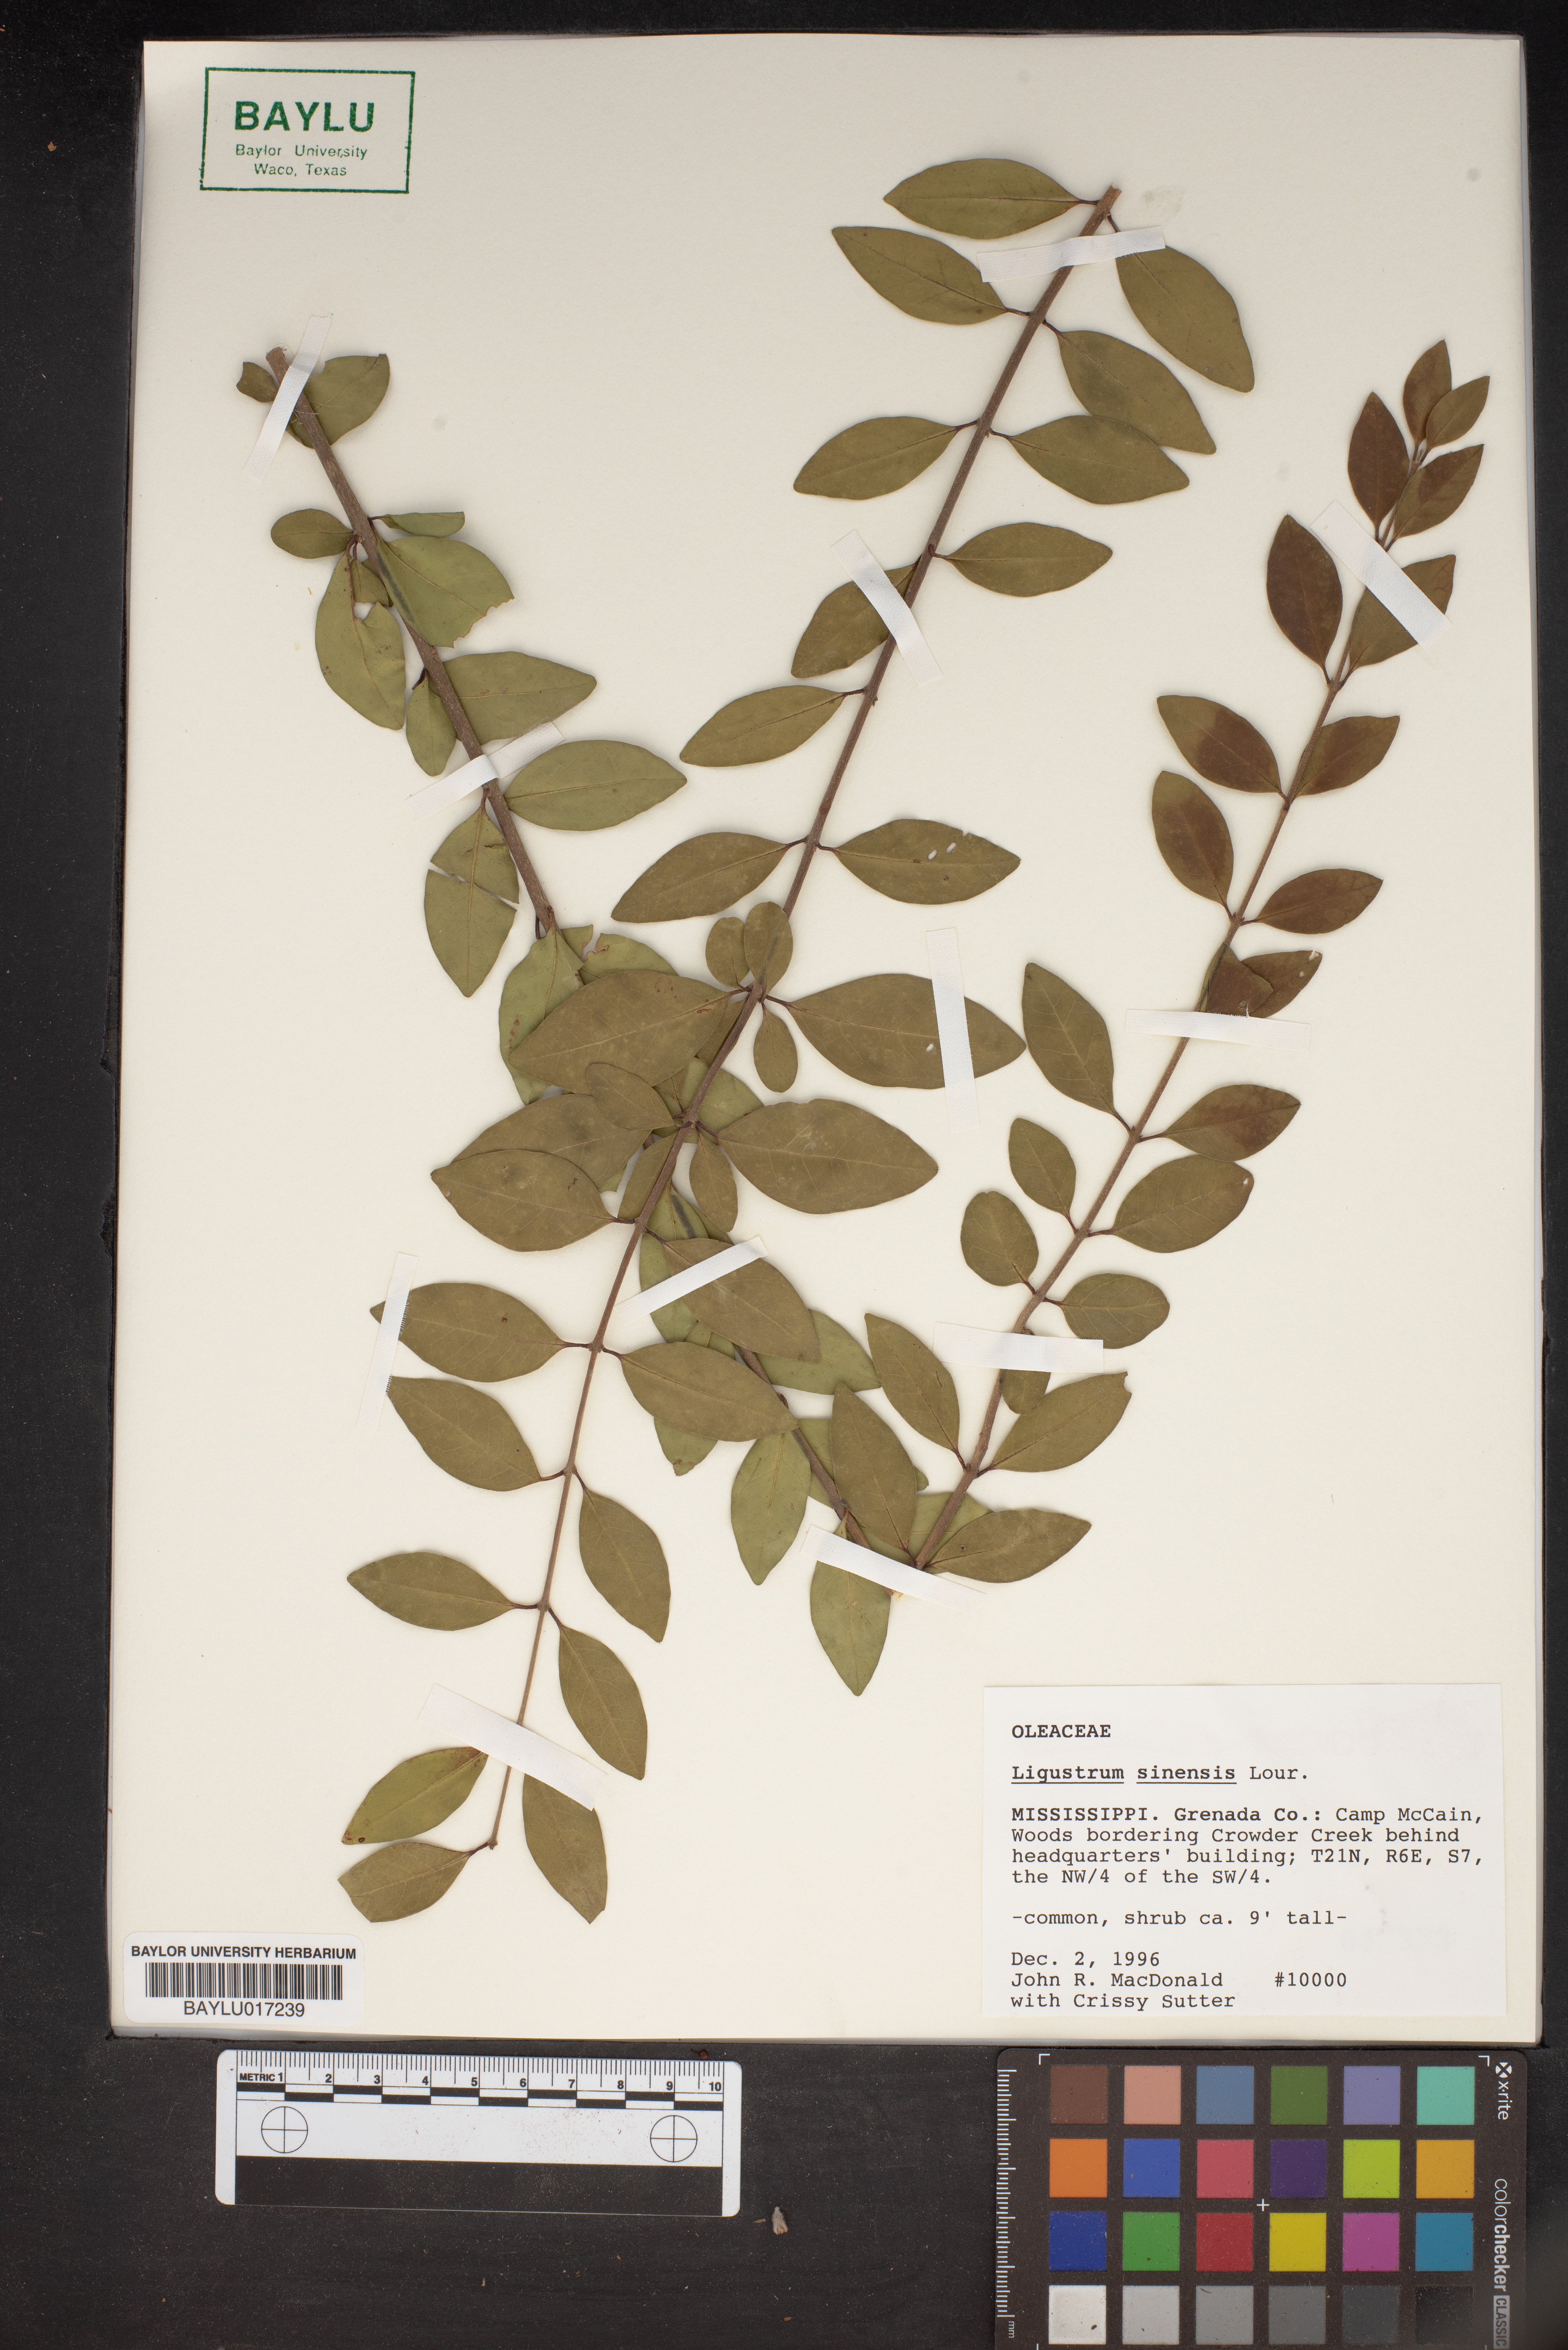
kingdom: Plantae
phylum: Tracheophyta
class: Magnoliopsida
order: Lamiales
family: Oleaceae
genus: Ligustrum
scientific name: Ligustrum sinense
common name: Chinese privet
